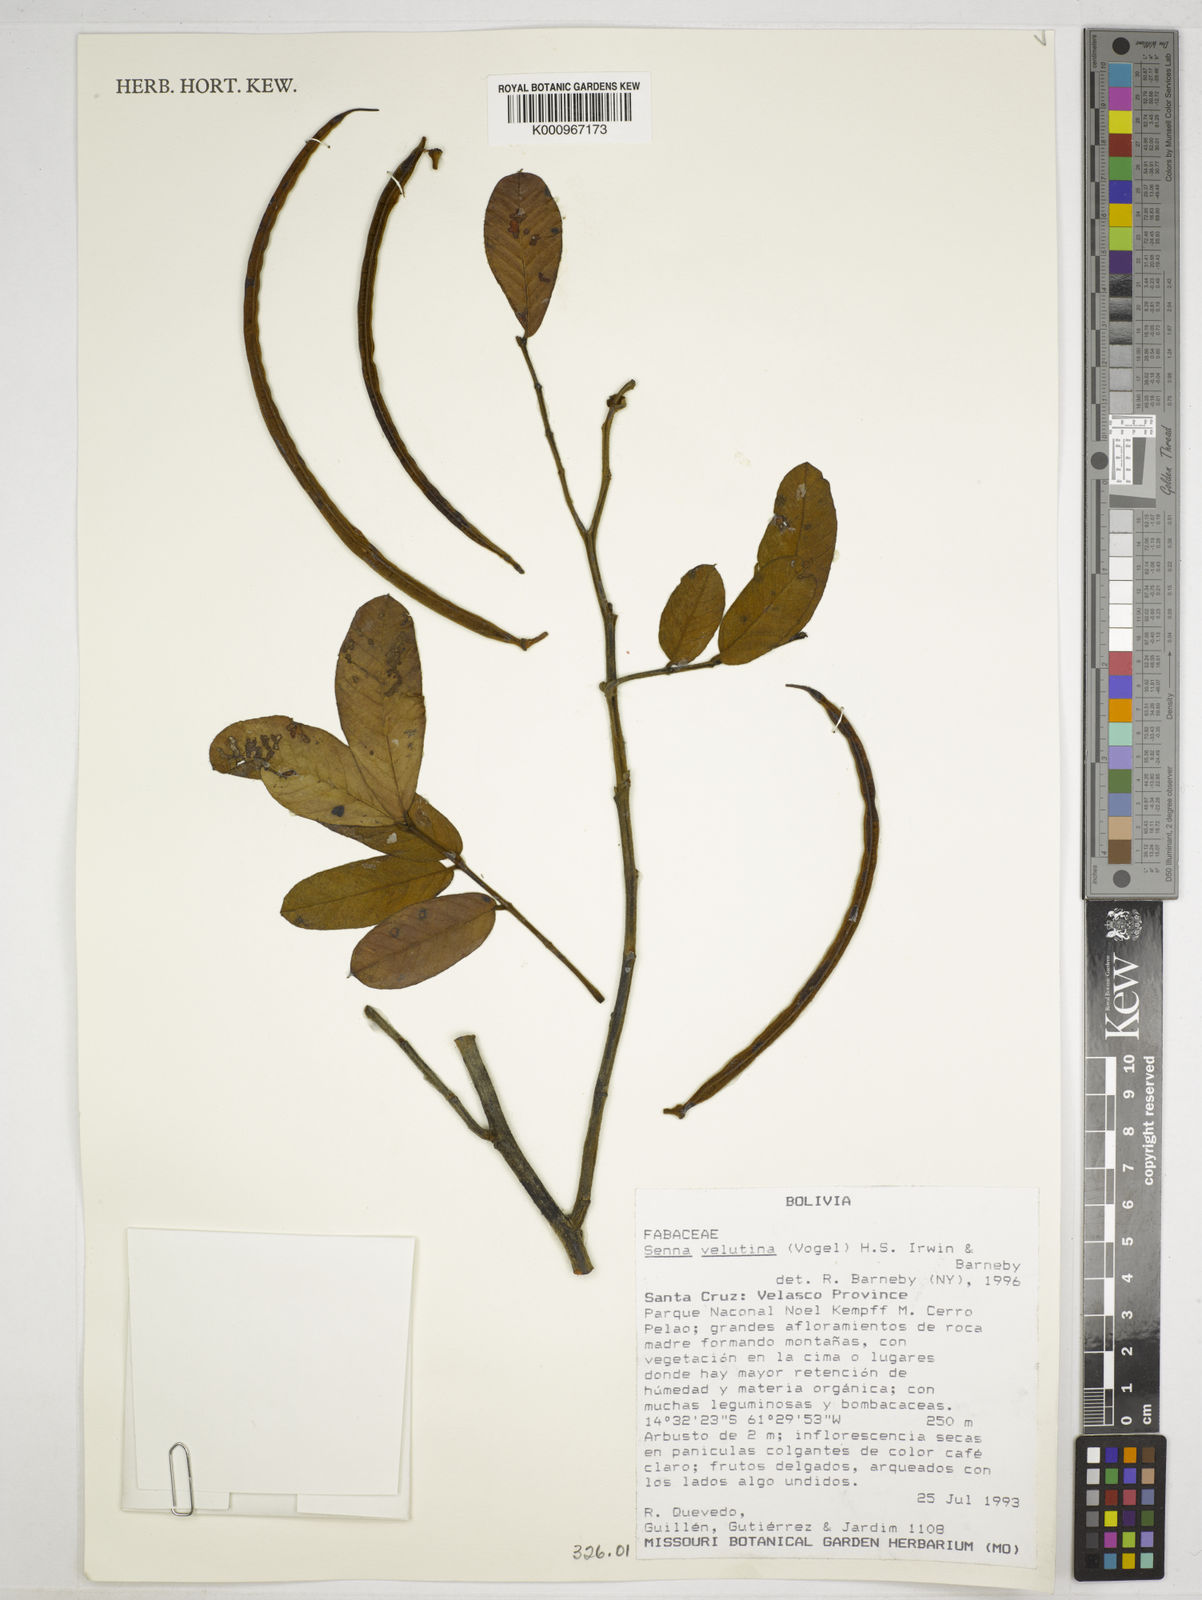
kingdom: Plantae
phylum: Tracheophyta
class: Magnoliopsida
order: Fabales
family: Fabaceae
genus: Senna
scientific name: Senna velutina
